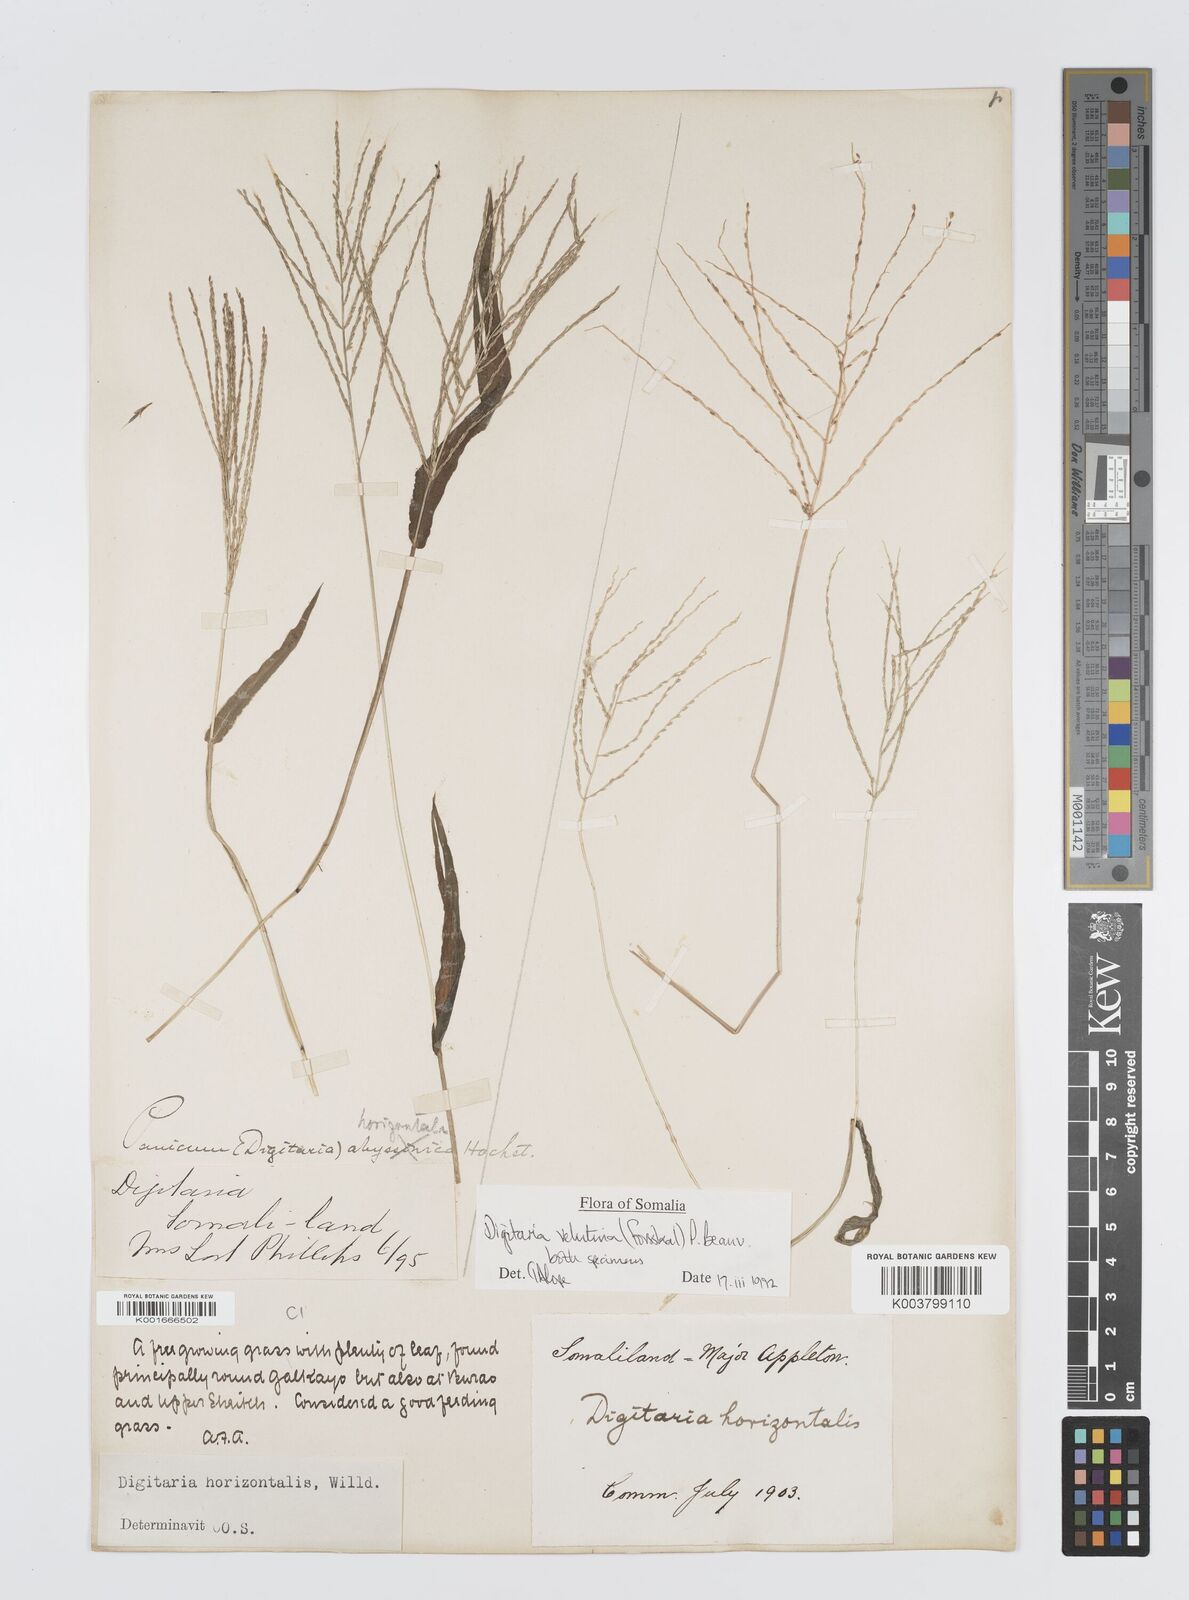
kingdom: Plantae
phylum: Tracheophyta
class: Liliopsida
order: Poales
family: Poaceae
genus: Digitaria
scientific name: Digitaria velutina
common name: Long-plume finger grass
